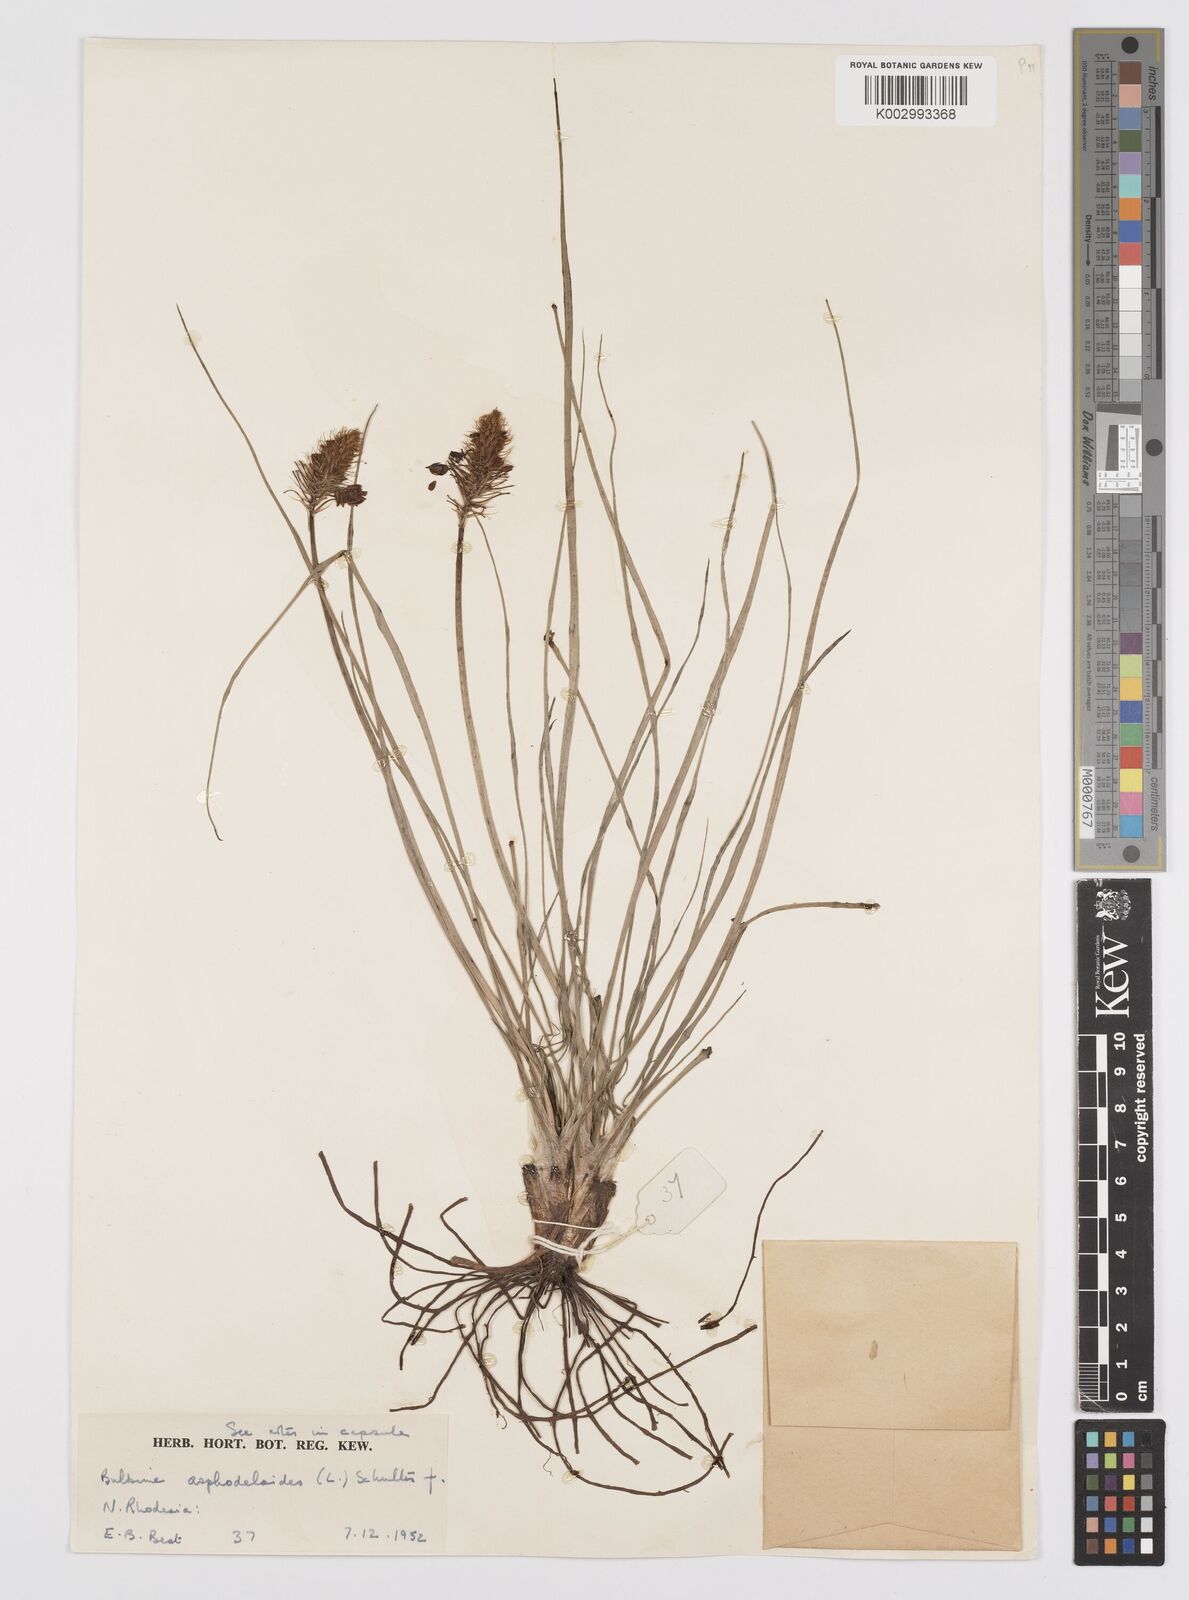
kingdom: Plantae
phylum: Tracheophyta
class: Liliopsida
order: Asparagales
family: Asphodelaceae
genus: Bulbine
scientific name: Bulbine abyssinica
